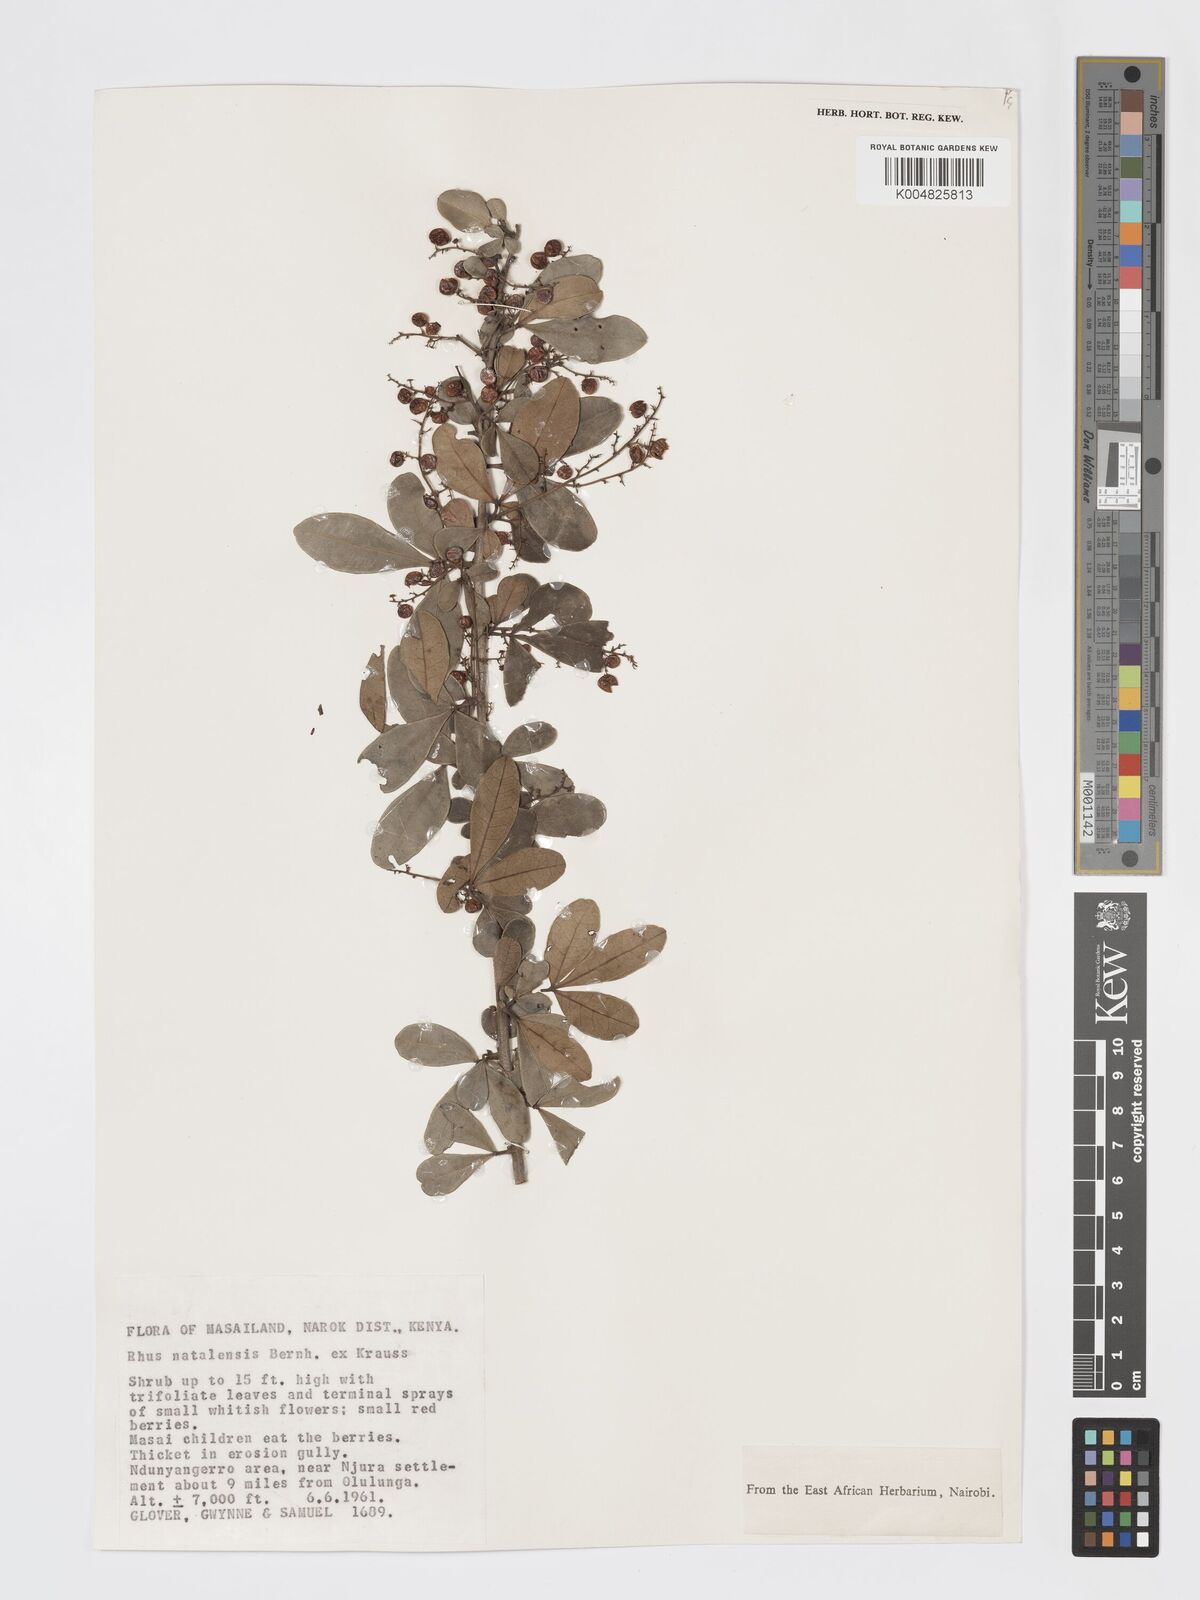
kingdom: Plantae
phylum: Tracheophyta
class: Magnoliopsida
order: Sapindales
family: Anacardiaceae
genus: Searsia
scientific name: Searsia natalensis
